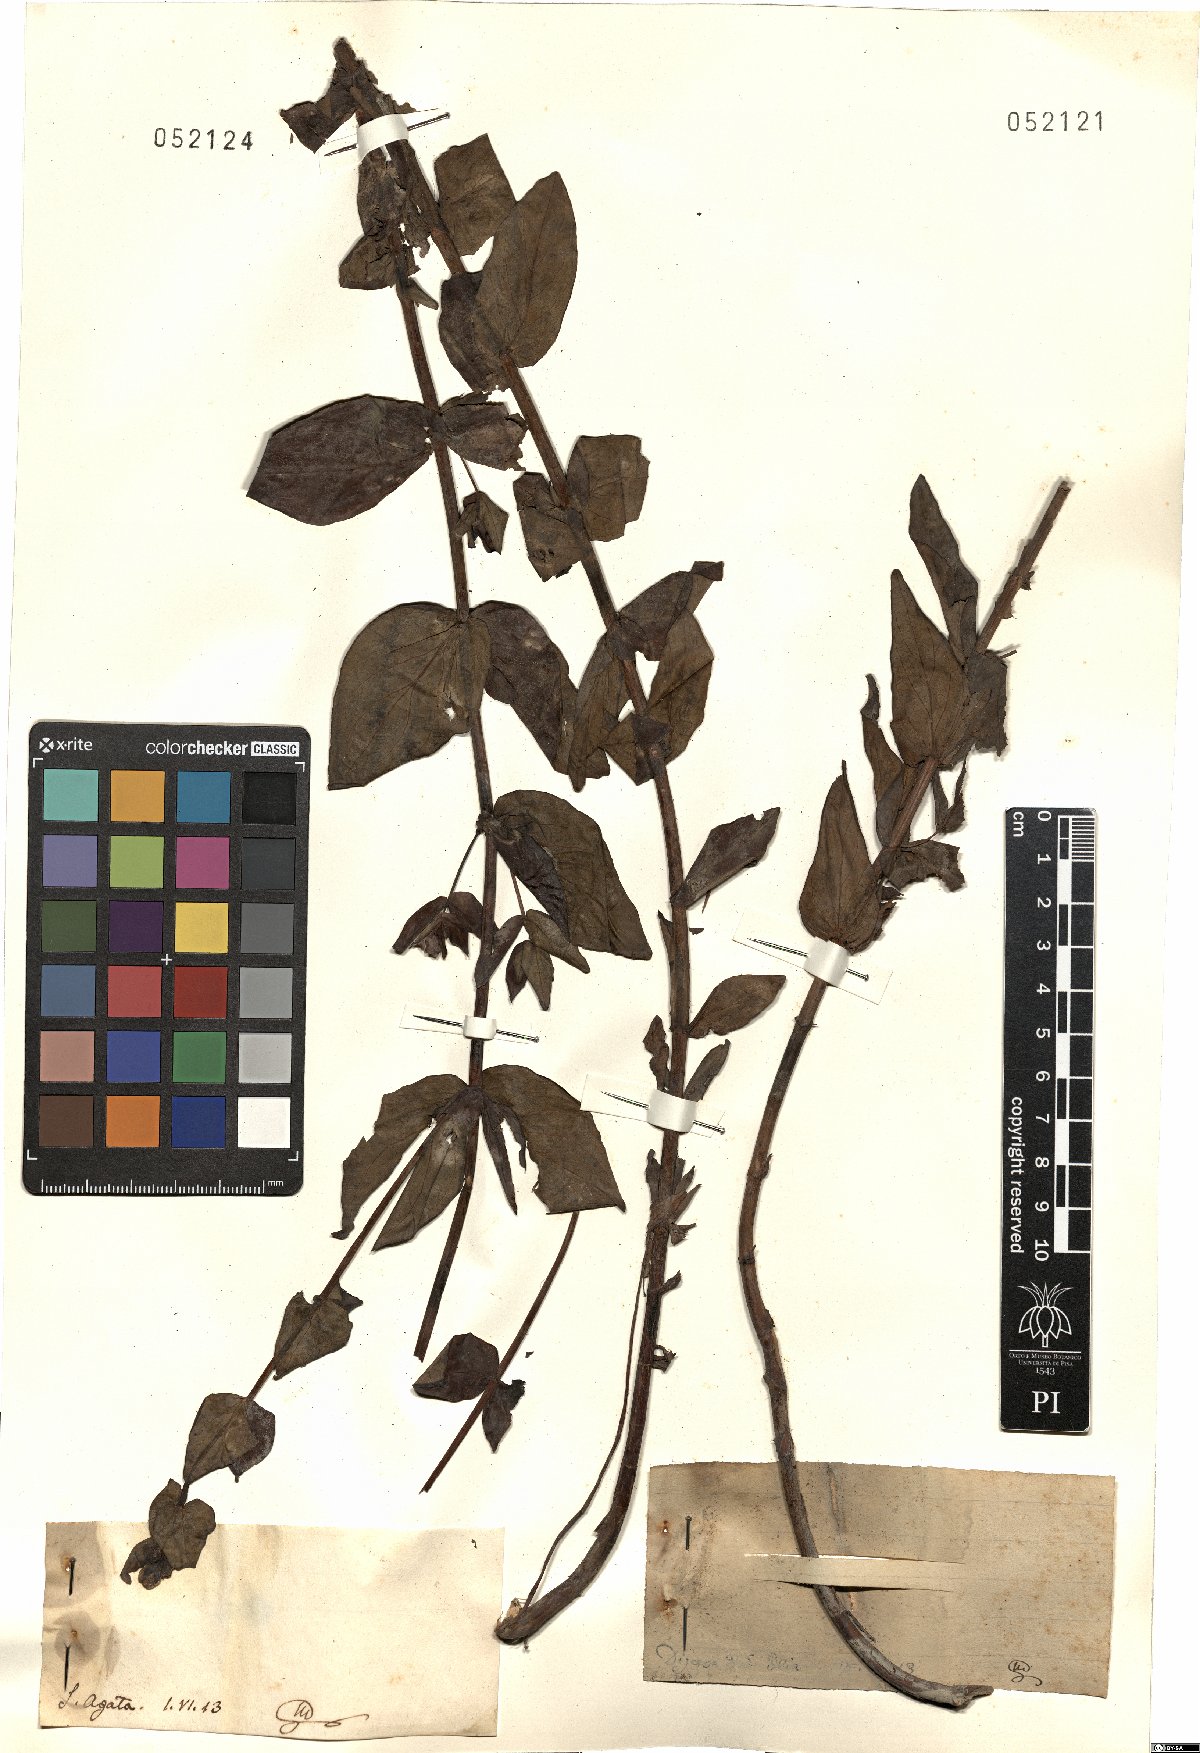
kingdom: Plantae
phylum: Tracheophyta
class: Magnoliopsida
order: Malpighiales
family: Hypericaceae
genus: Hypericum
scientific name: Hypericum
